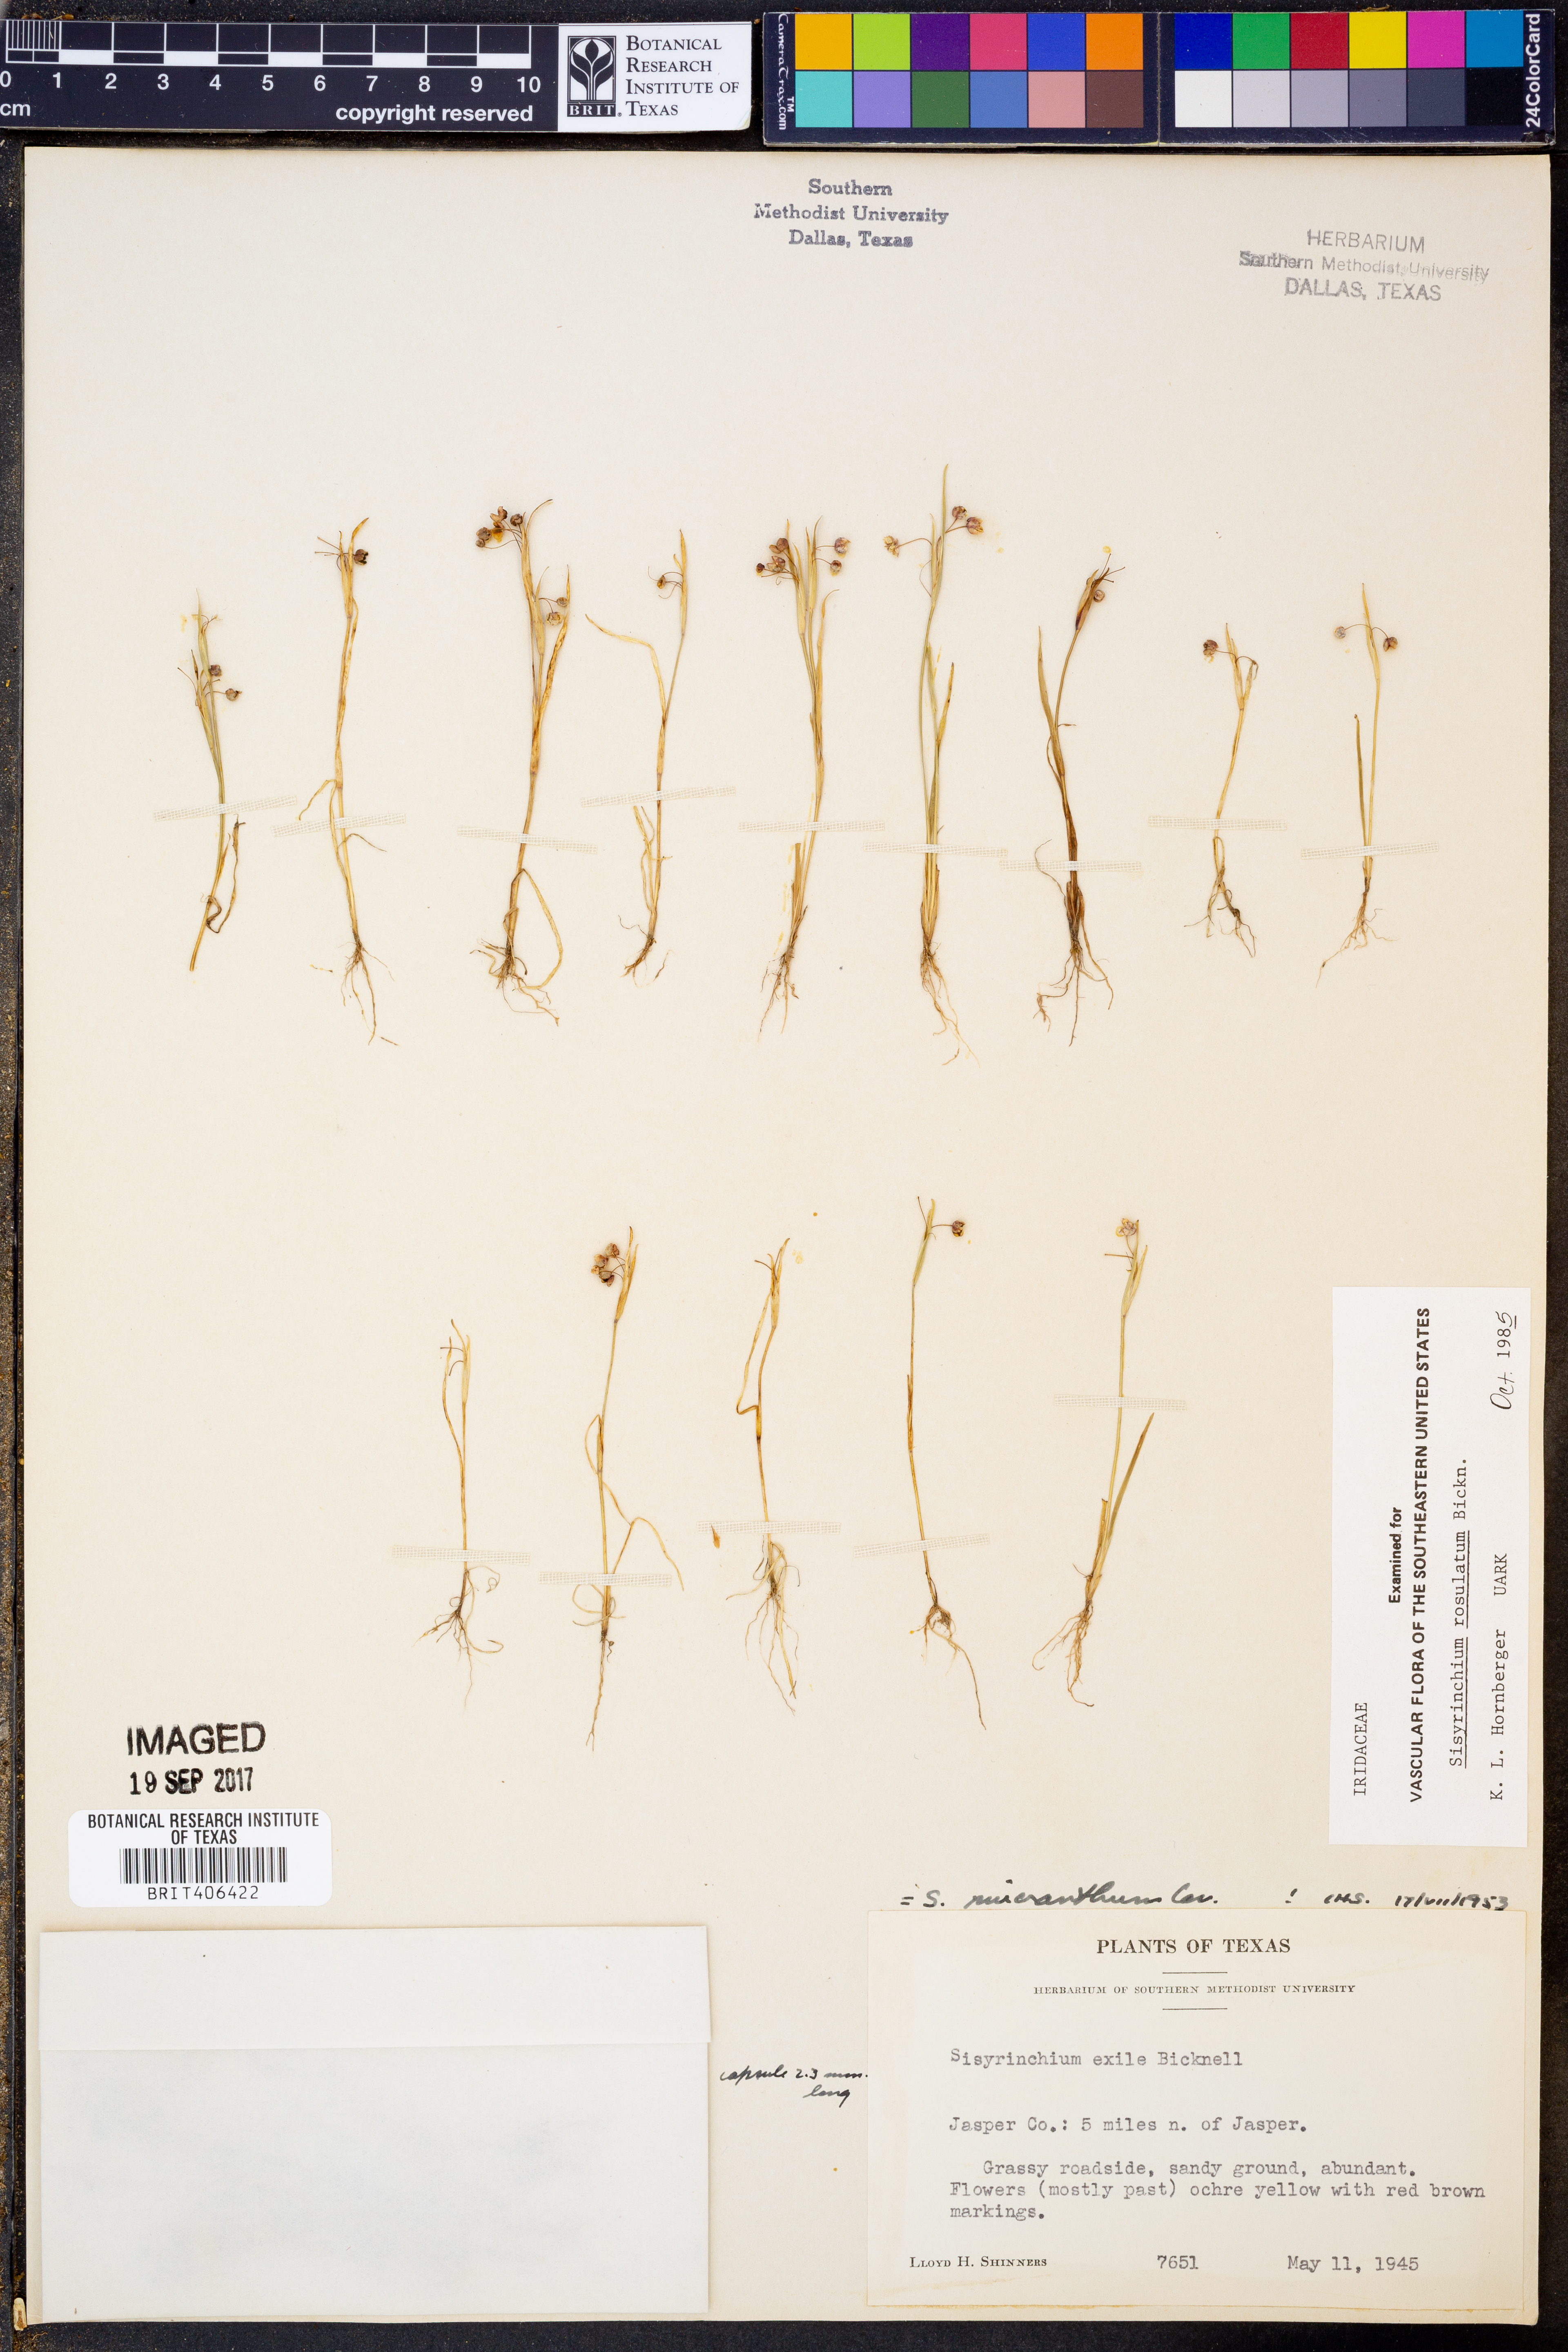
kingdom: Plantae
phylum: Tracheophyta
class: Liliopsida
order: Asparagales
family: Iridaceae
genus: Sisyrinchium
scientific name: Sisyrinchium rosulatum
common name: Annual blue-eyed grass
